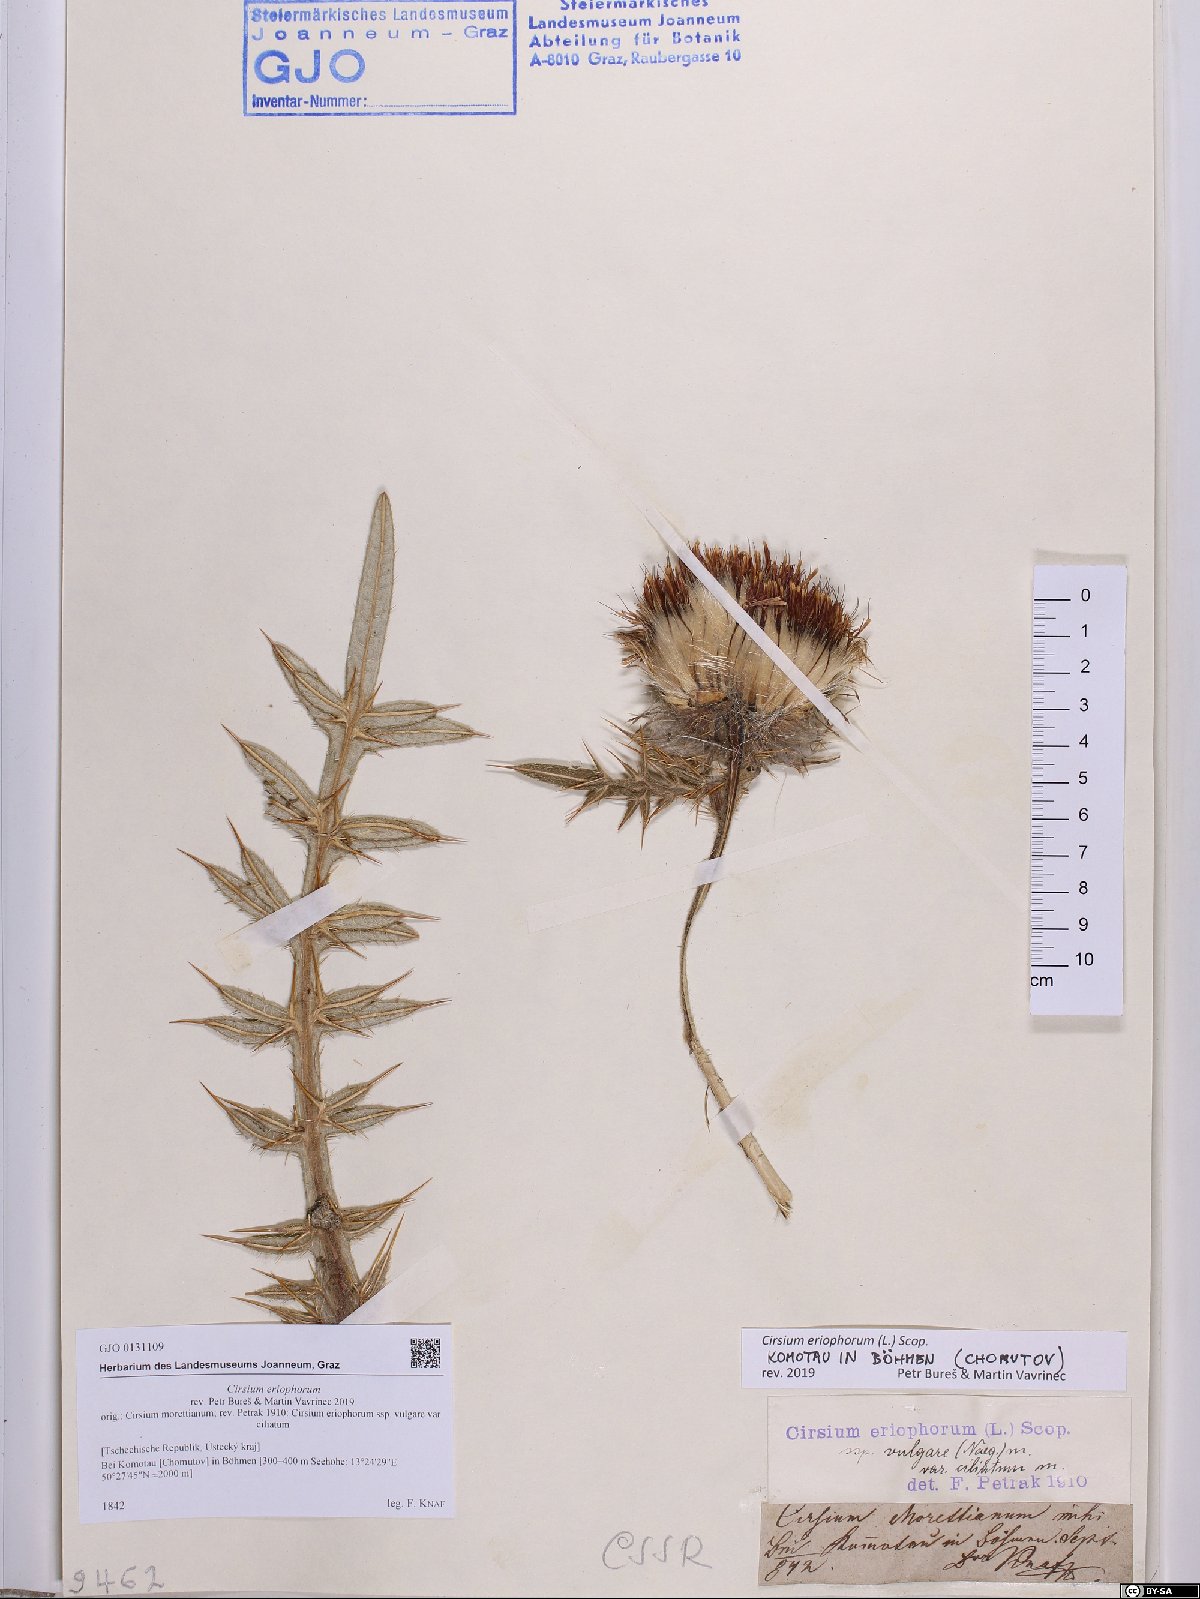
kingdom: Plantae
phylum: Tracheophyta
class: Magnoliopsida
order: Asterales
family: Asteraceae
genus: Lophiolepis
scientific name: Lophiolepis eriophora
